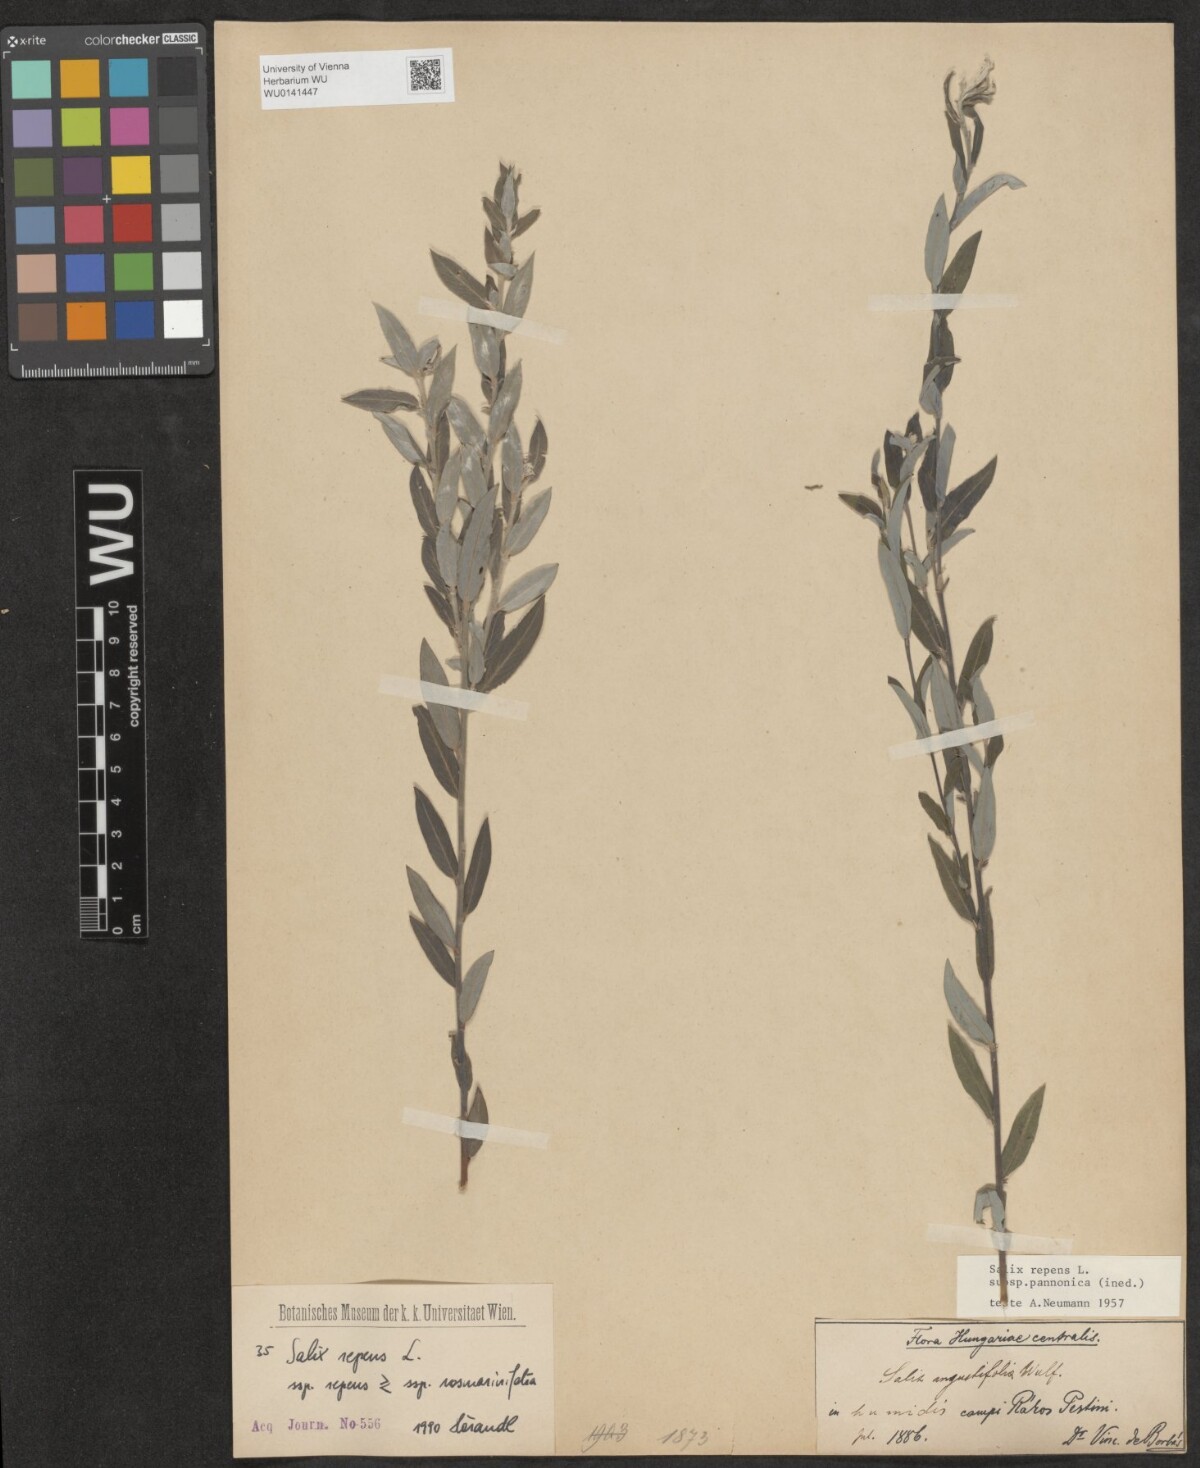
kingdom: Plantae
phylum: Tracheophyta
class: Magnoliopsida
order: Malpighiales
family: Salicaceae
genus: Salix
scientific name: Salix repens
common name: Creeping willow
